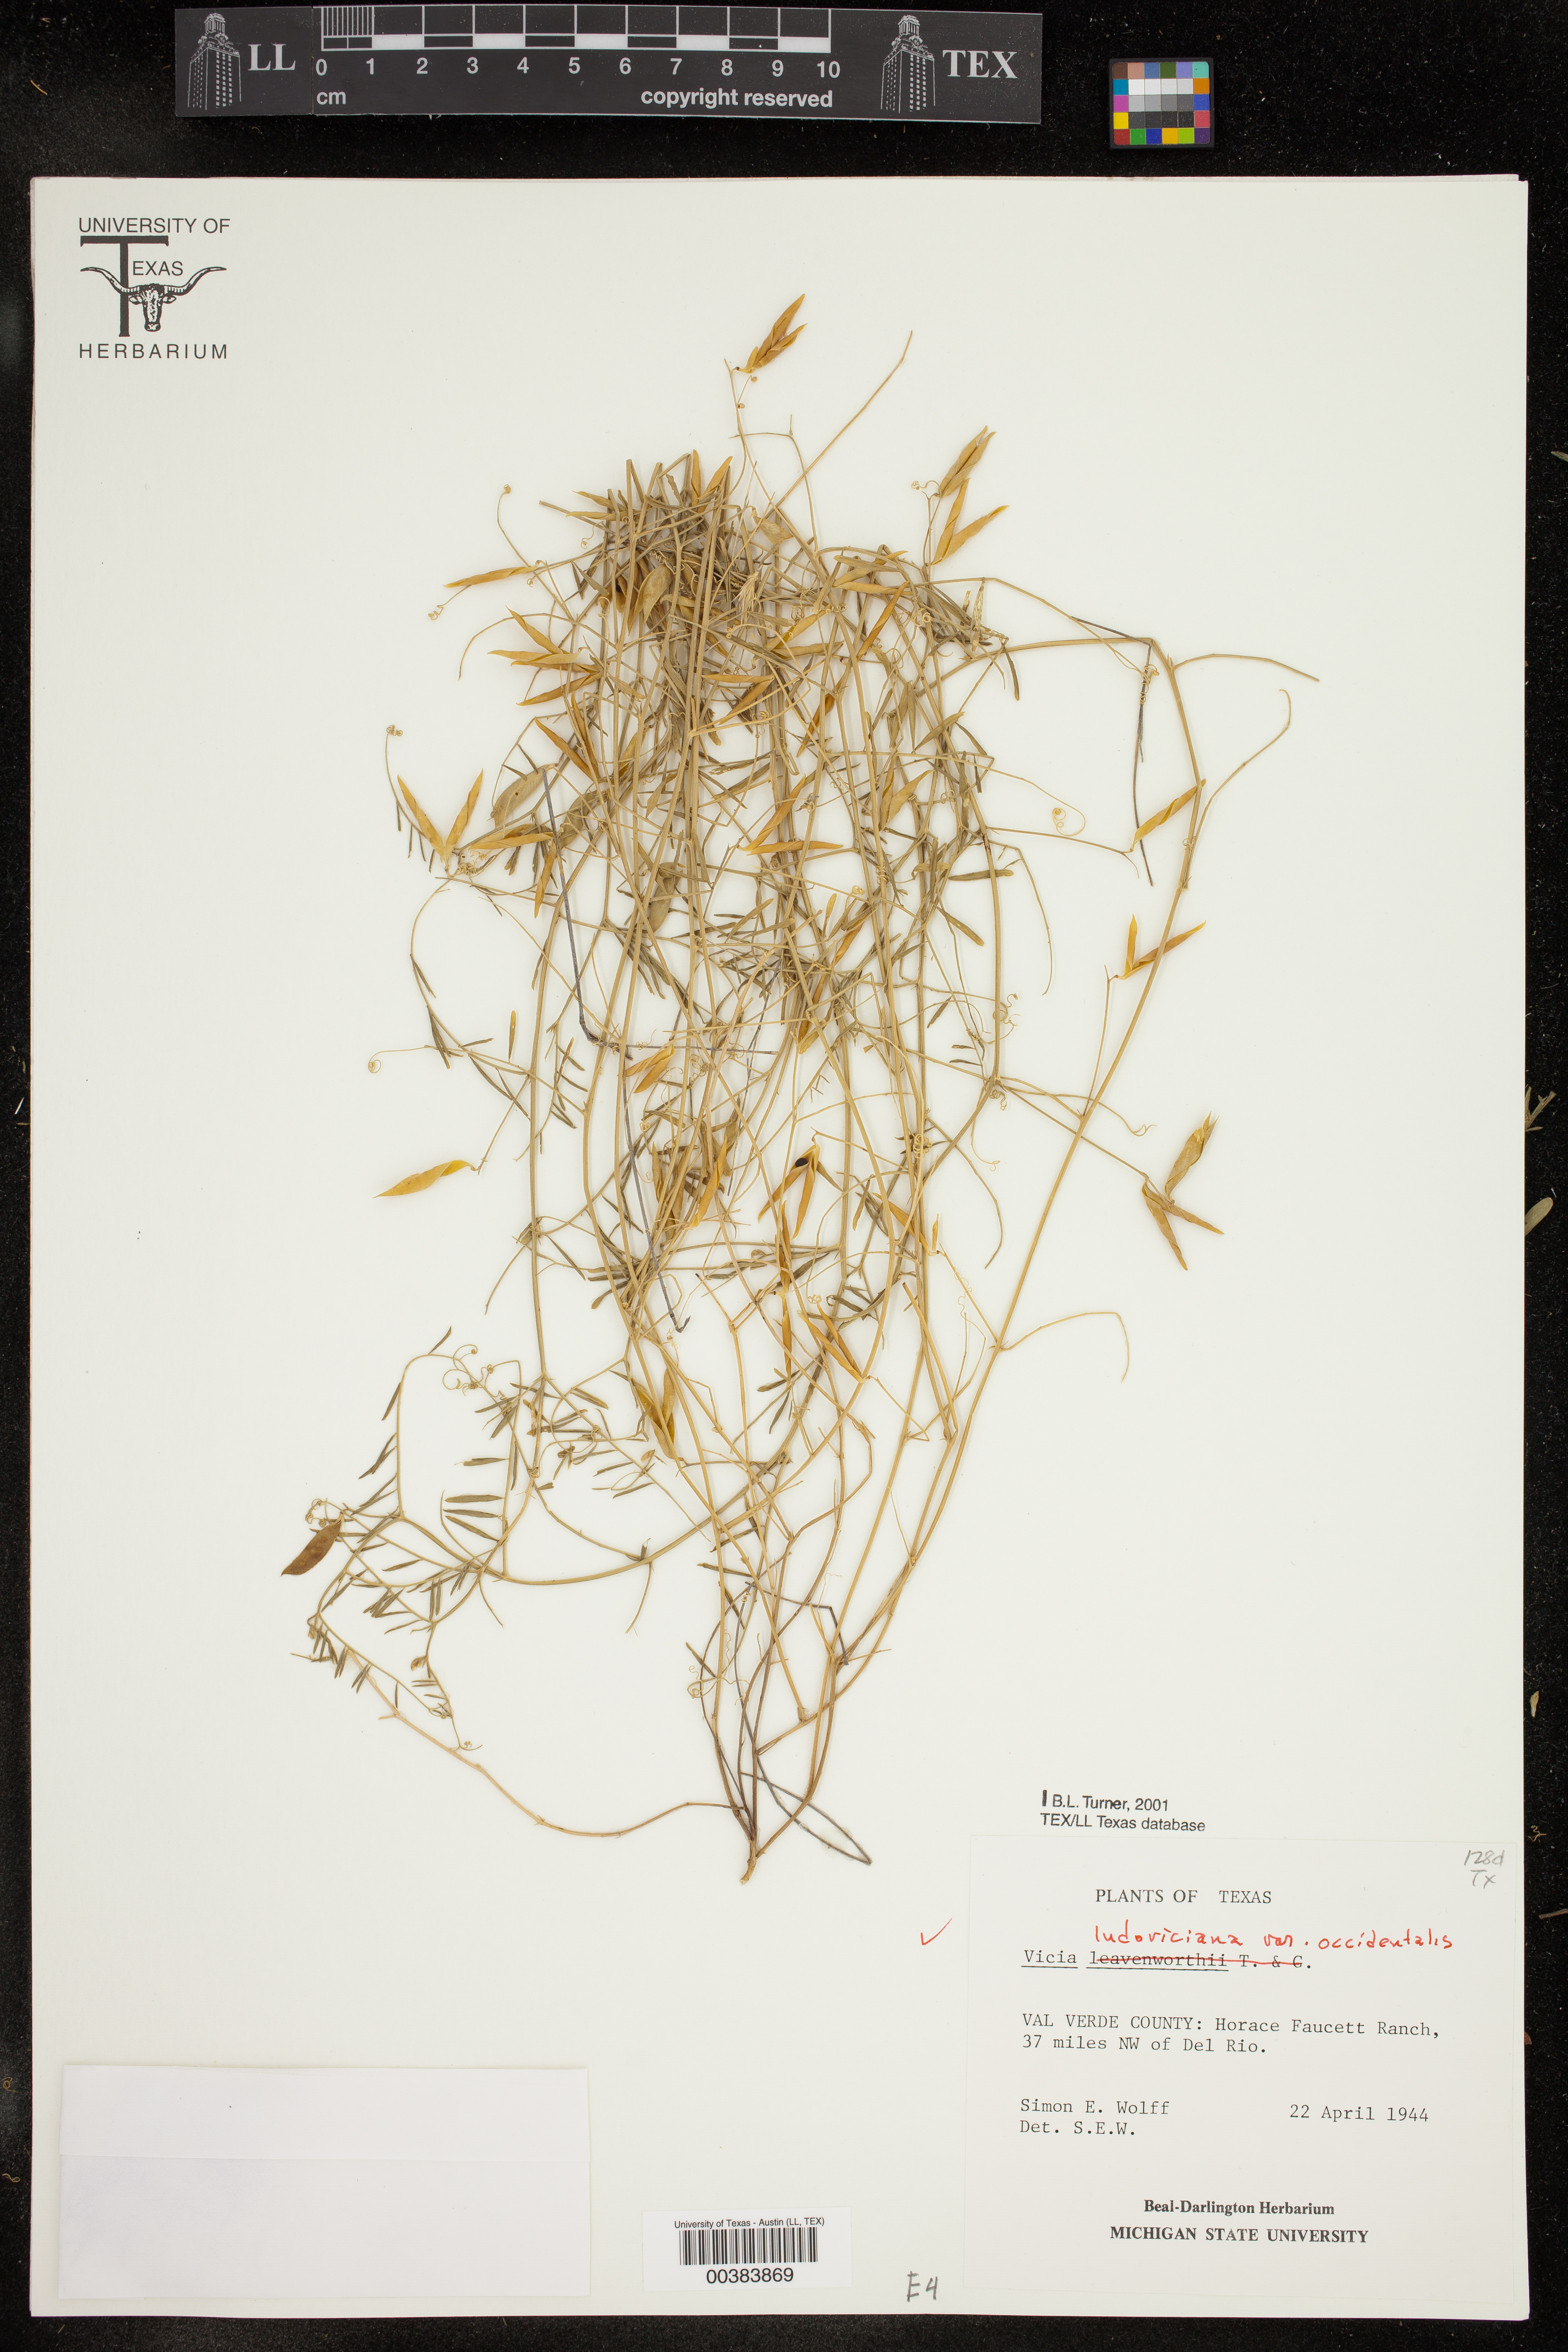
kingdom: Plantae
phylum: Tracheophyta
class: Magnoliopsida
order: Fabales
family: Fabaceae
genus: Vicia
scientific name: Vicia ludoviciana
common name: Louisiana vetch
